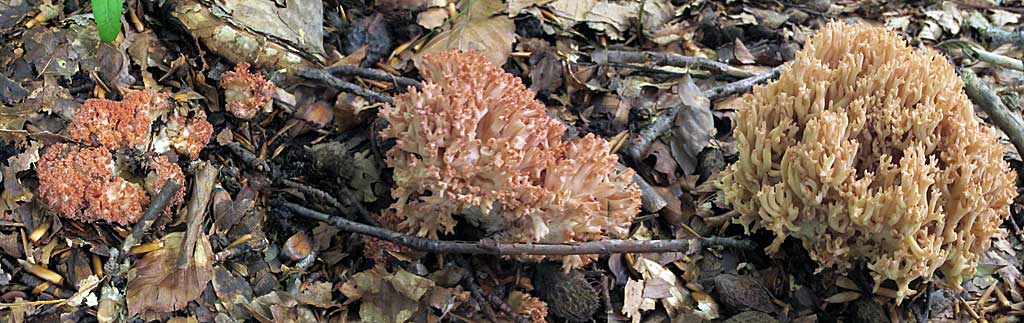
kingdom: Fungi
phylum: Basidiomycota
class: Agaricomycetes
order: Gomphales
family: Gomphaceae
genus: Ramaria
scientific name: Ramaria botrytis
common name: drue-koralsvamp
